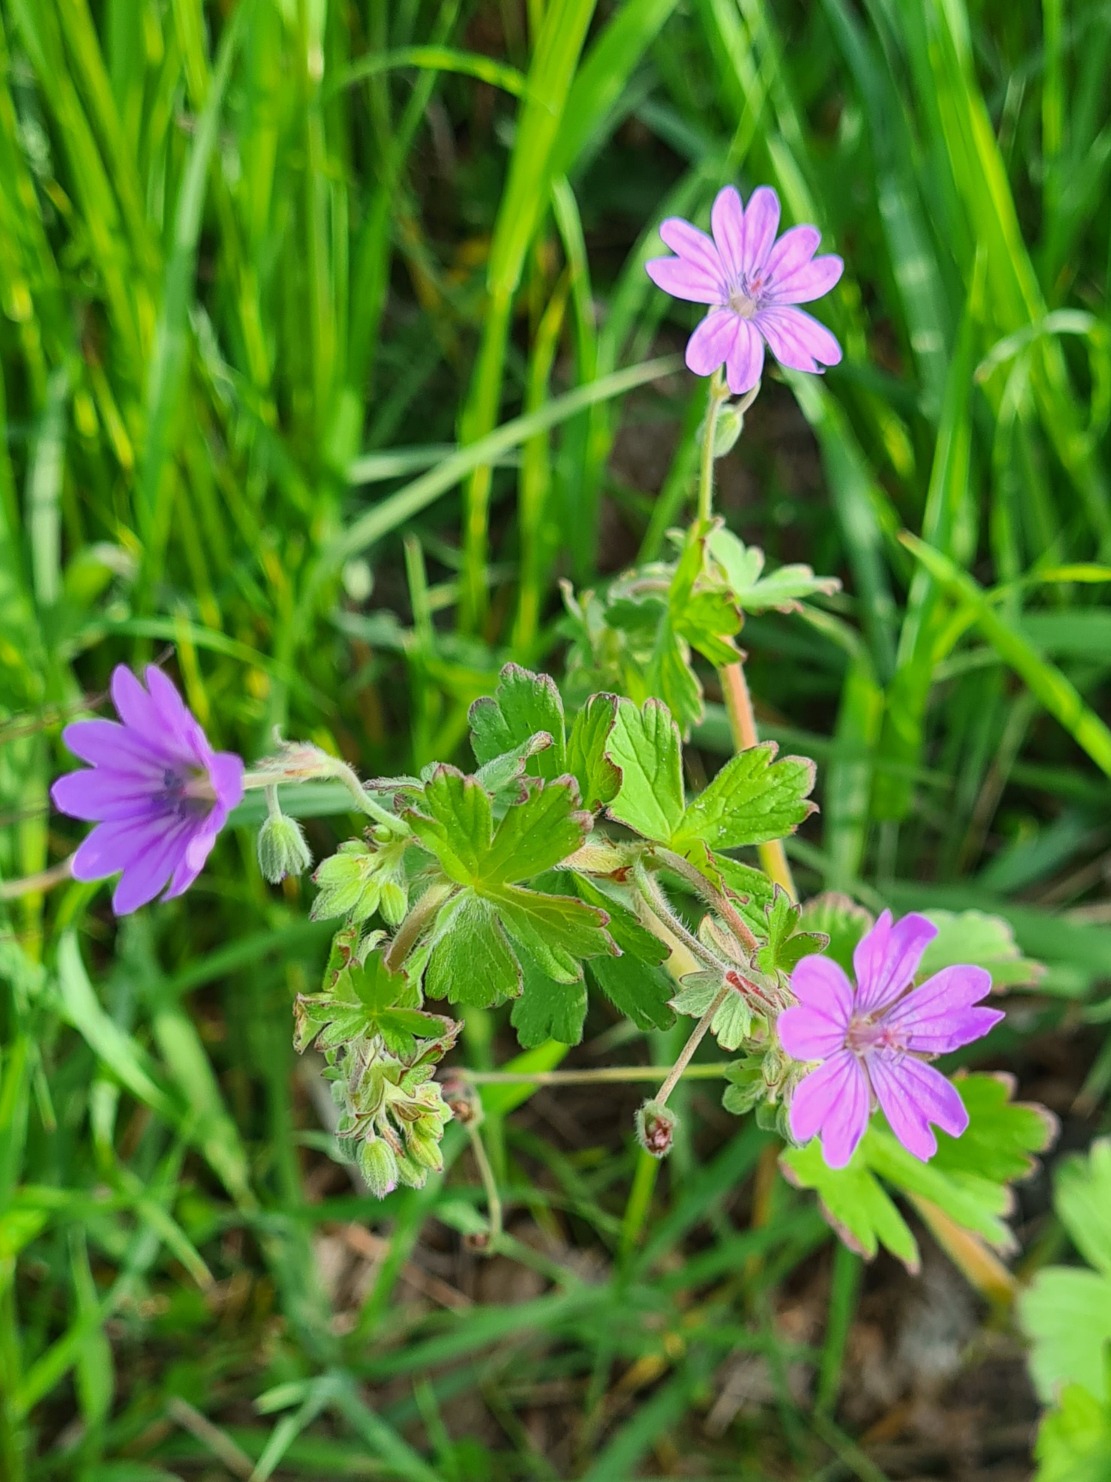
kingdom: Plantae
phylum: Tracheophyta
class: Magnoliopsida
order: Geraniales
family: Geraniaceae
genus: Geranium
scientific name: Geranium pyrenaicum
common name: Pyrenæisk storkenæb
